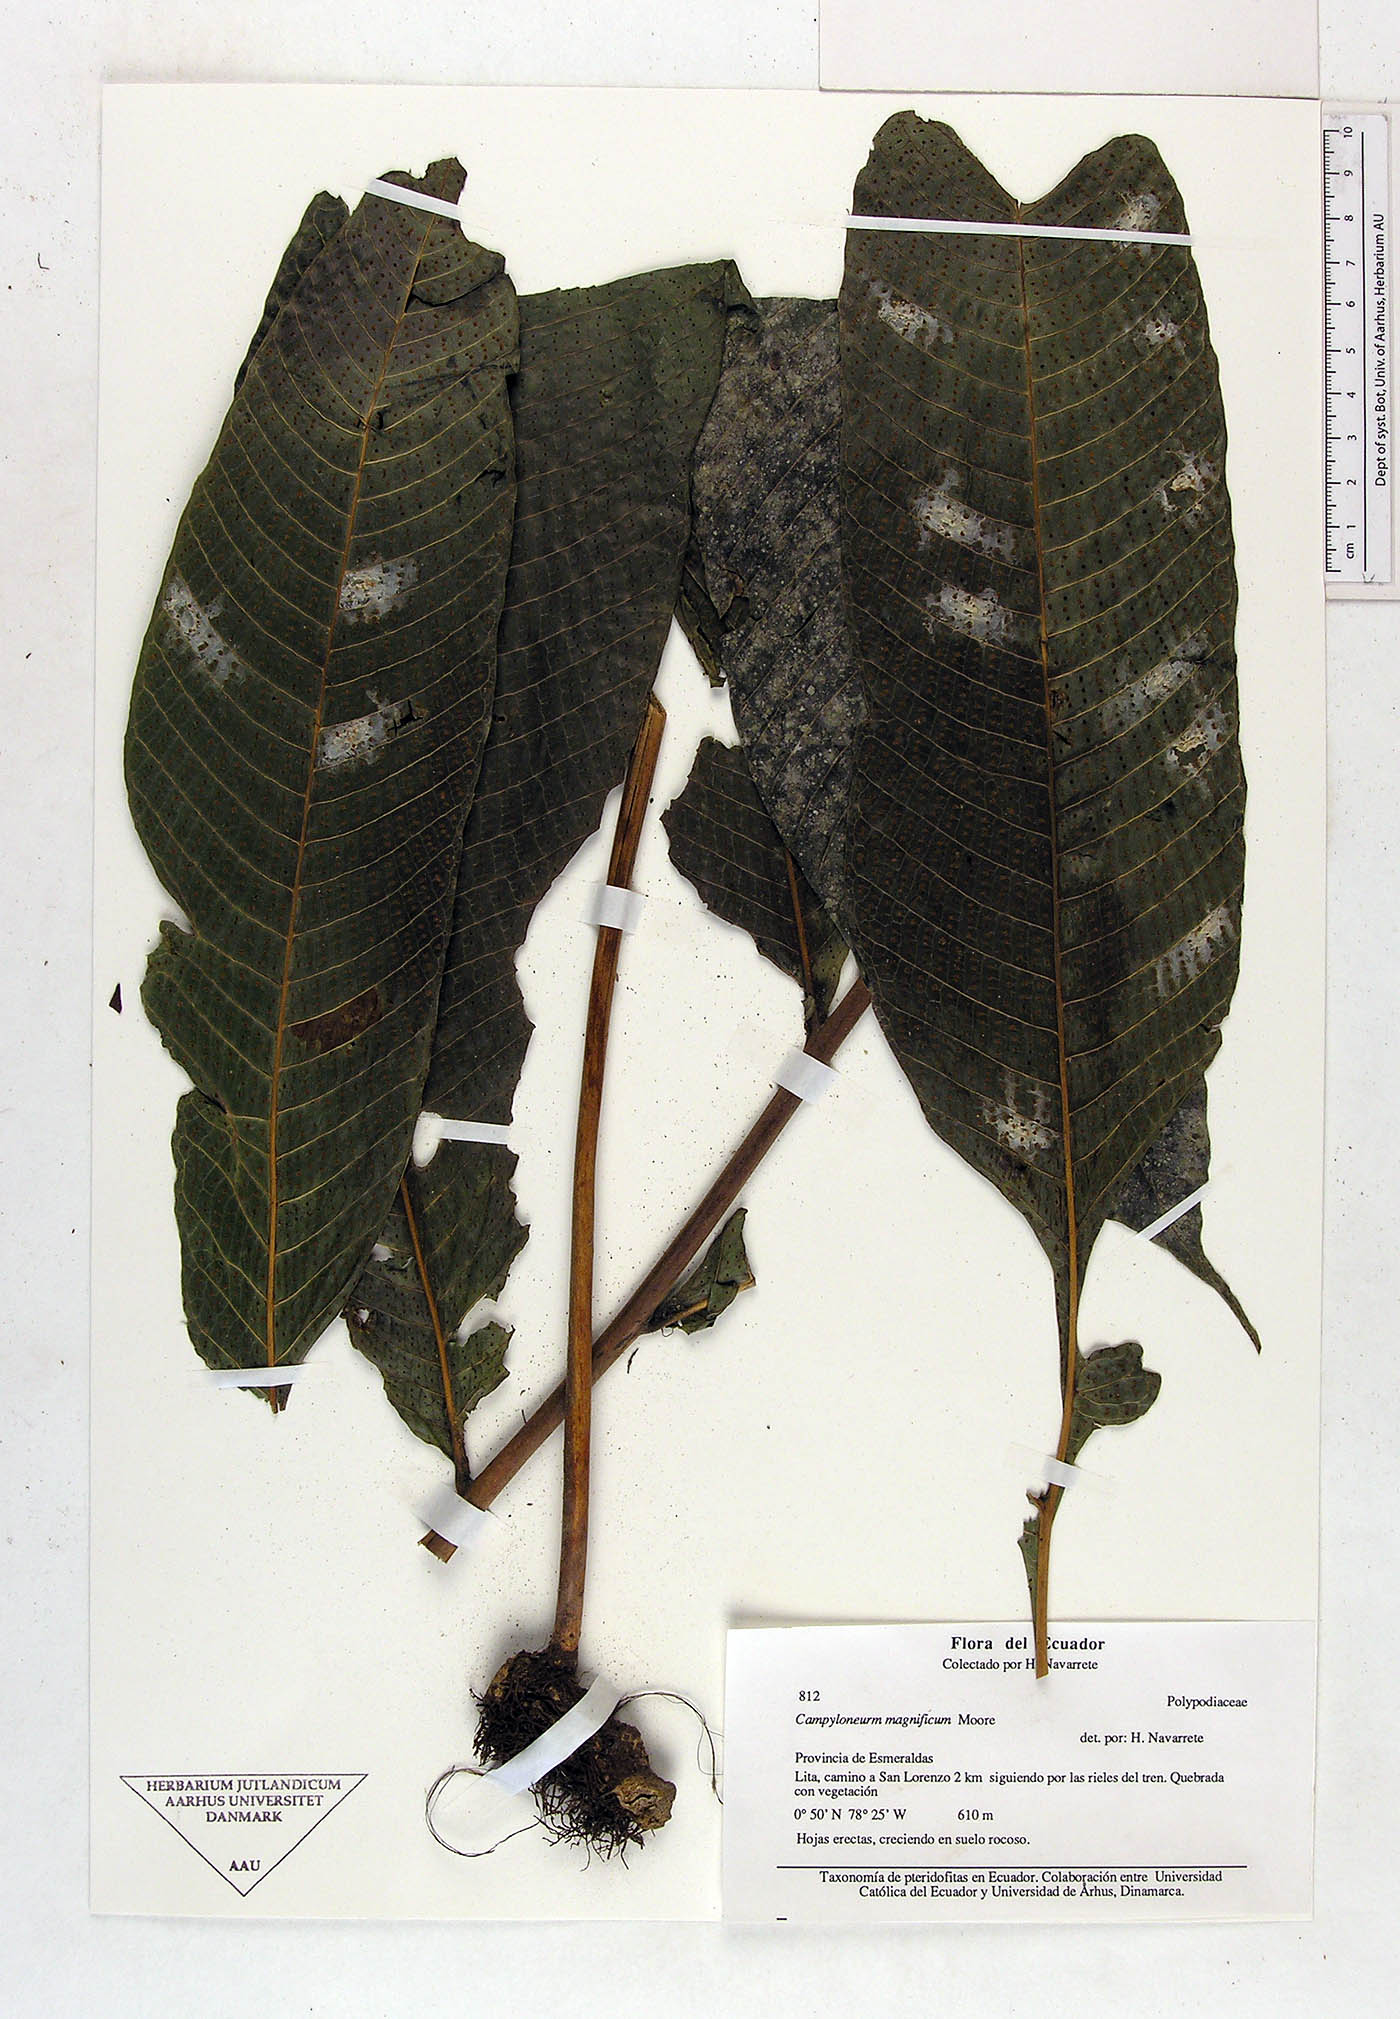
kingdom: Plantae
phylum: Tracheophyta
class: Polypodiopsida
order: Polypodiales
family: Polypodiaceae
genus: Campyloneurum
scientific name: Campyloneurum magnificum
